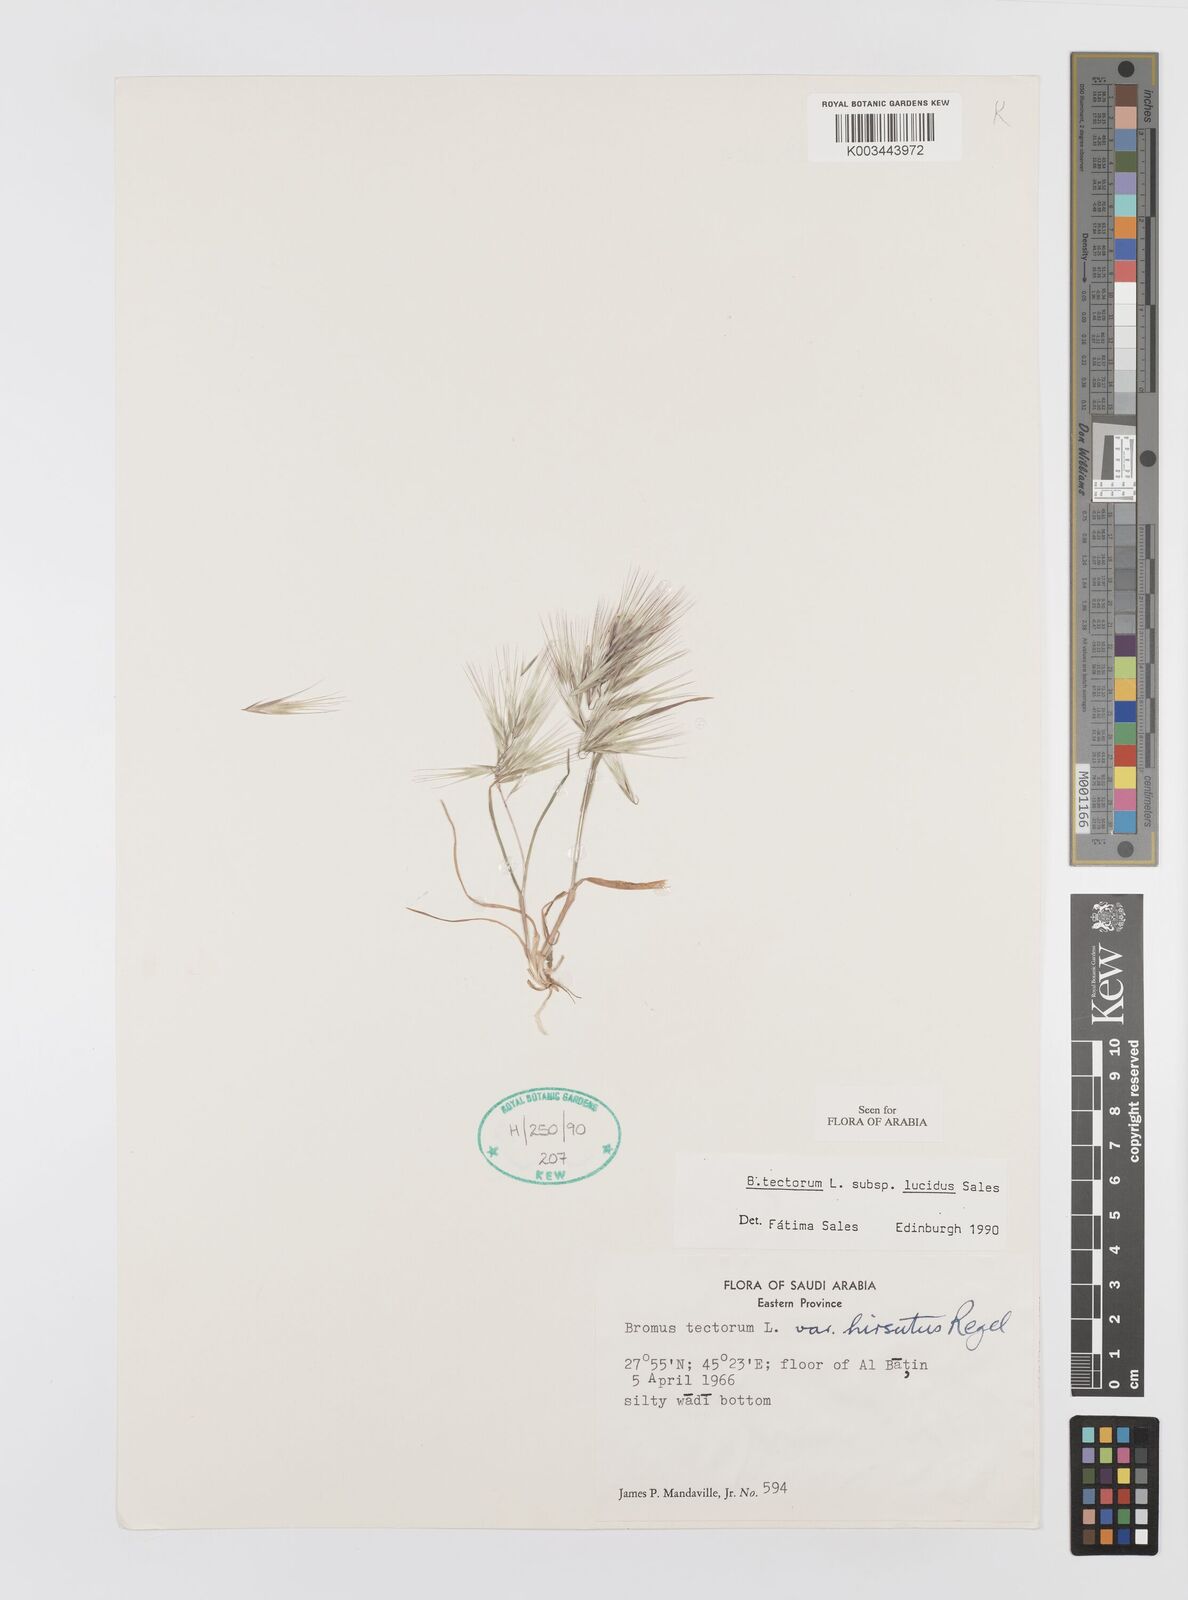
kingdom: Plantae
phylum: Tracheophyta
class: Liliopsida
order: Poales
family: Poaceae
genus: Bromus
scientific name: Bromus moeszii
